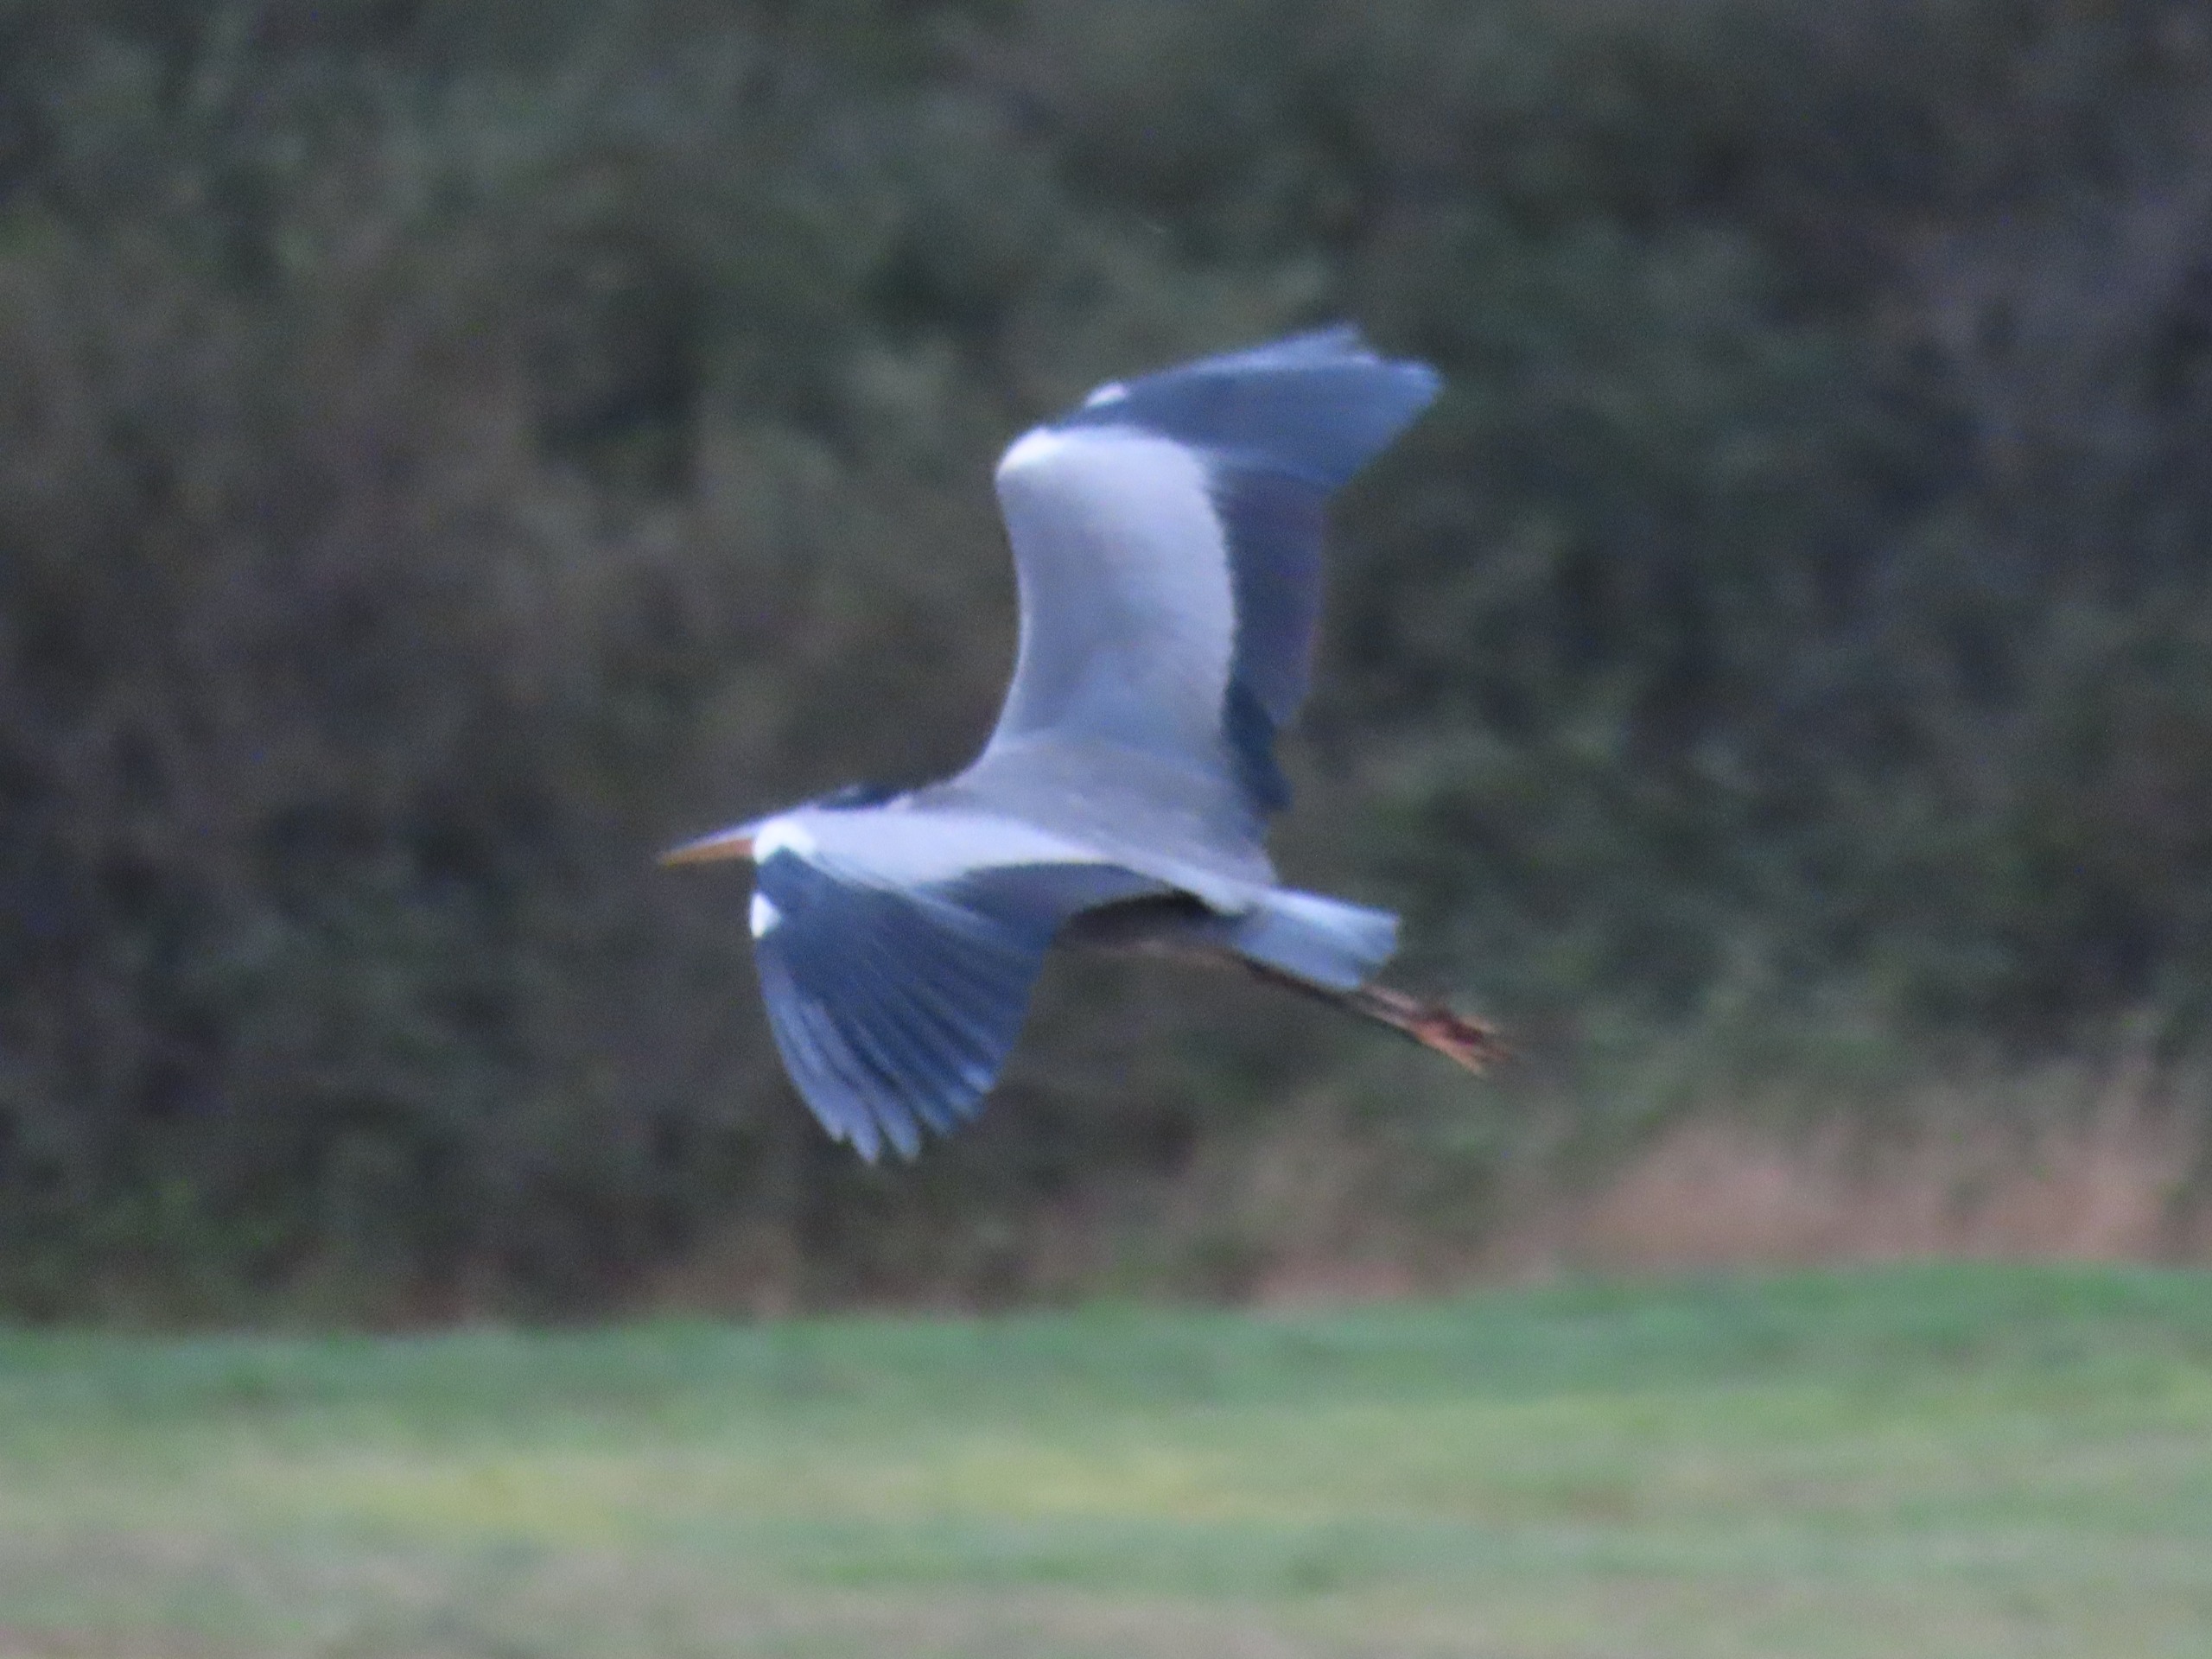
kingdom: Animalia
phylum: Chordata
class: Aves
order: Pelecaniformes
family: Ardeidae
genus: Ardea
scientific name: Ardea cinerea
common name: Fiskehejre
